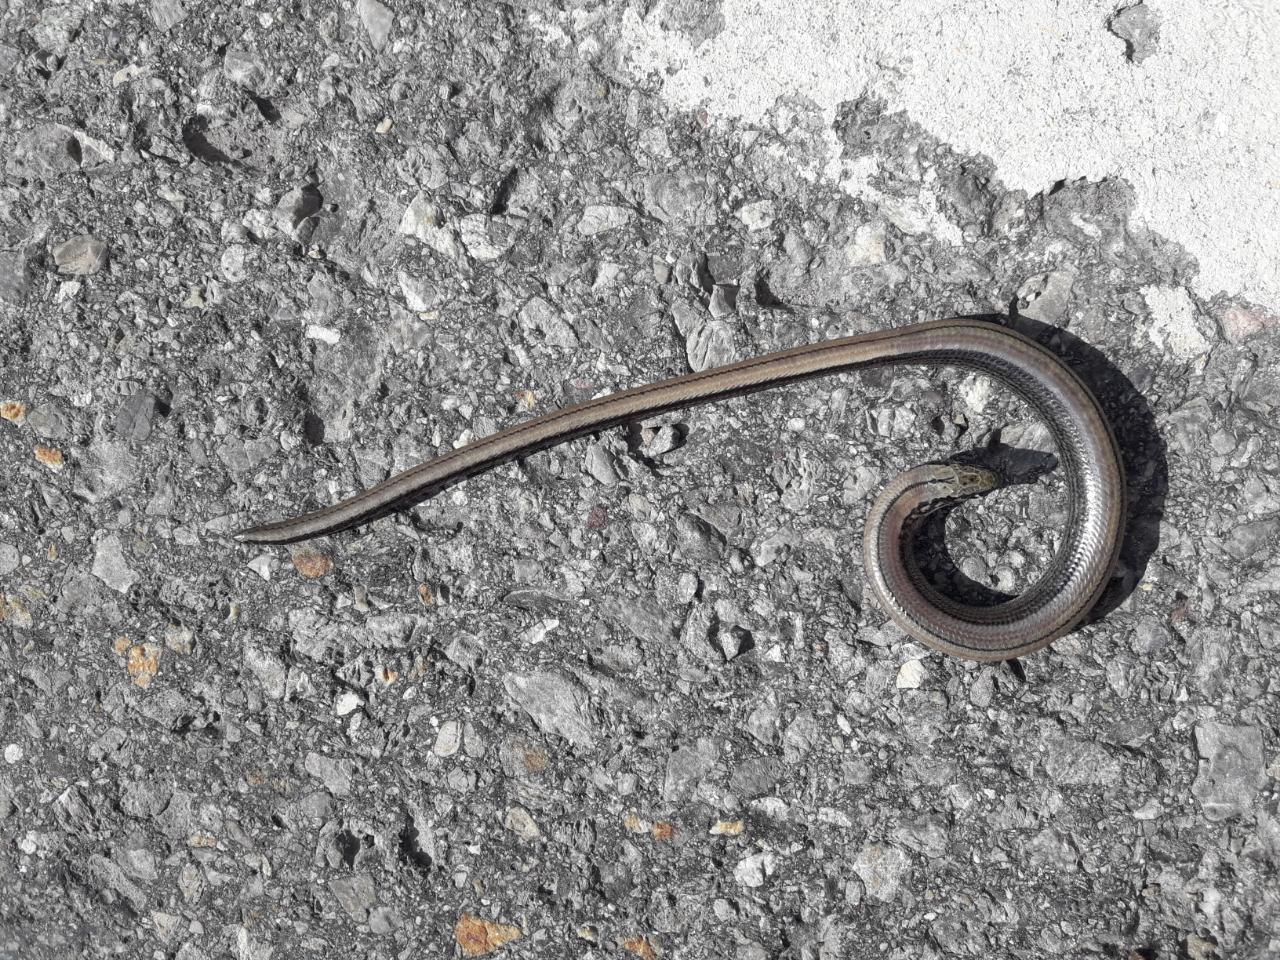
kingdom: Animalia
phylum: Chordata
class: Squamata
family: Anguidae
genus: Anguis
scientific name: Anguis fragilis
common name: Slow worm
